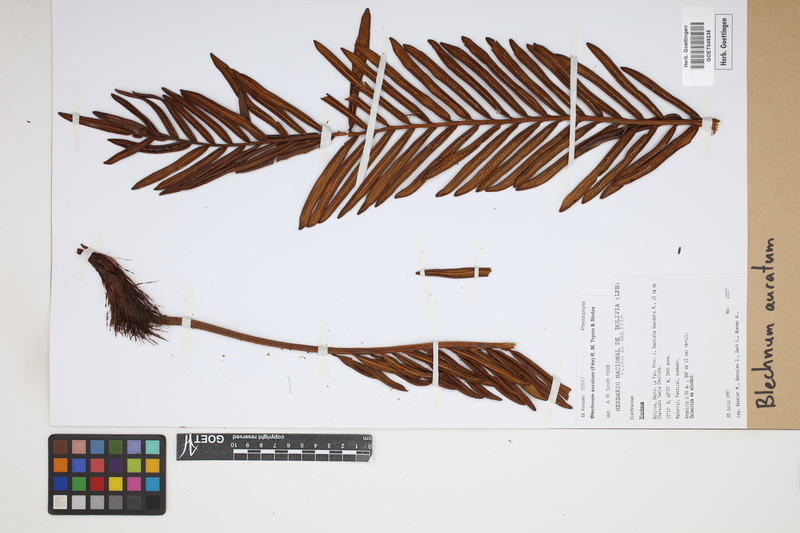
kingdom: Plantae
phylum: Tracheophyta
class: Polypodiopsida
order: Polypodiales
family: Blechnaceae
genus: Lomariocycas
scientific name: Lomariocycas aurata
